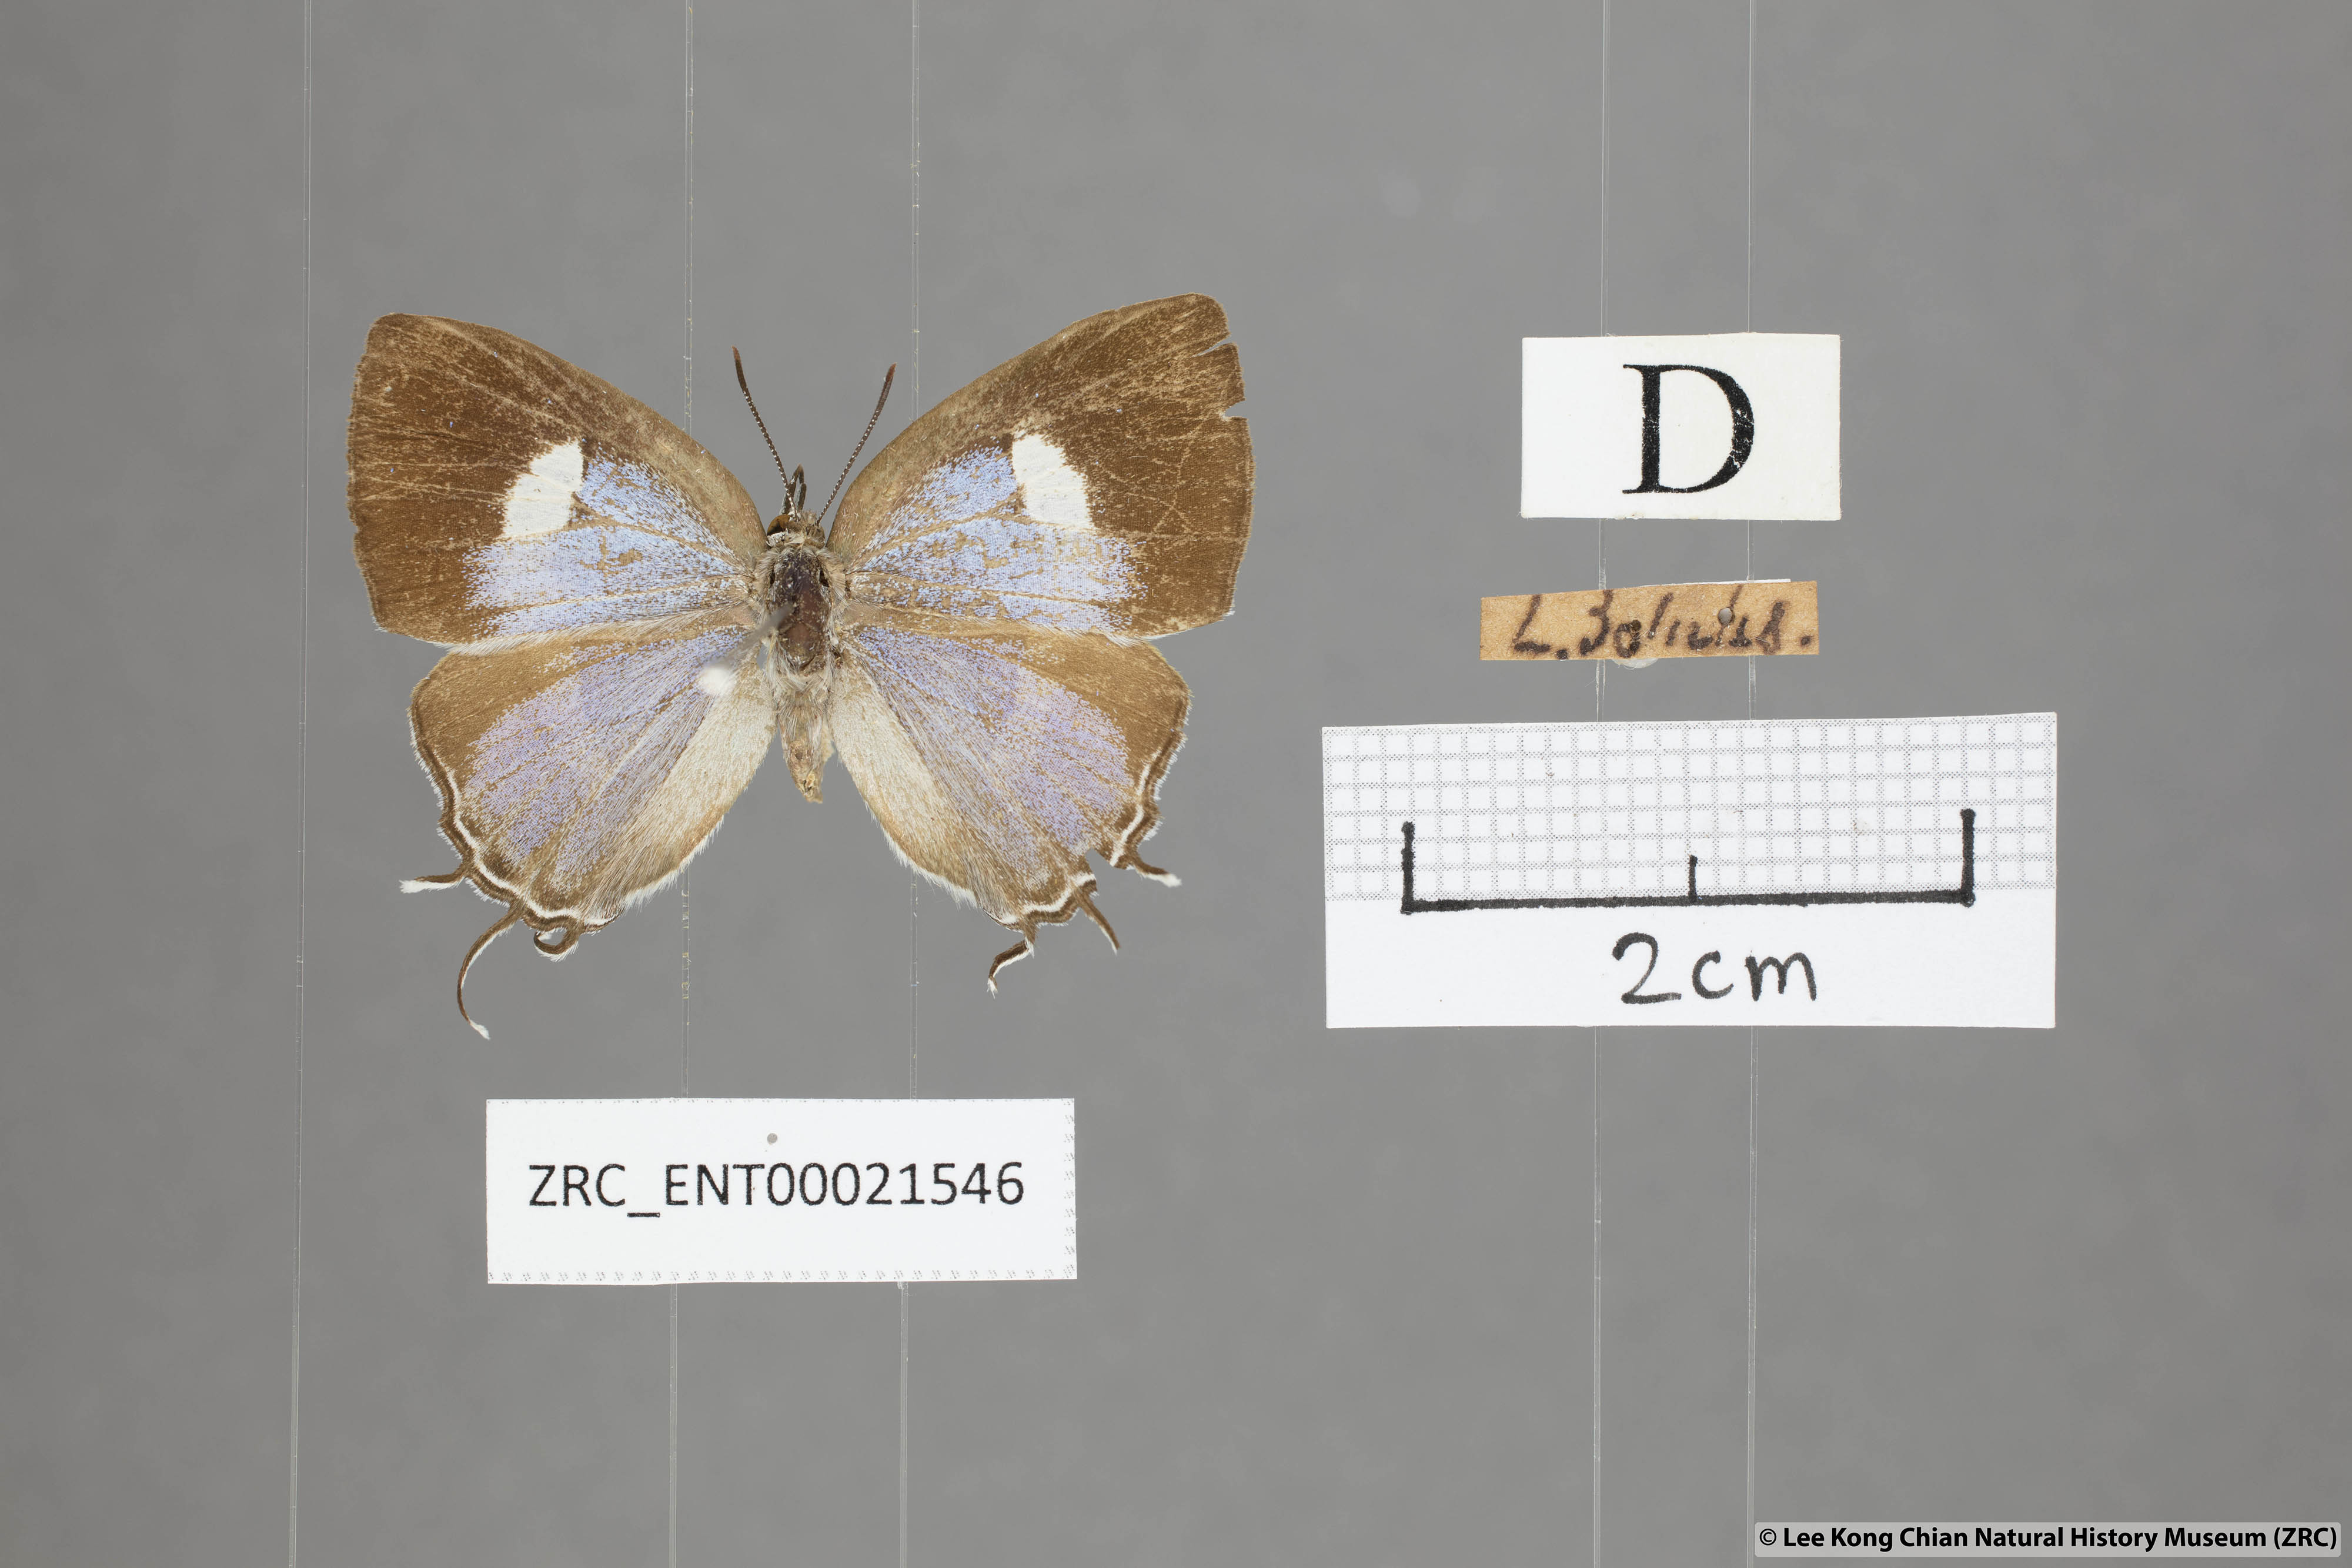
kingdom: Animalia
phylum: Arthropoda
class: Insecta
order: Lepidoptera
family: Lycaenidae
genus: Horaga
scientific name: Horaga syrinx
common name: Ambon onyx
